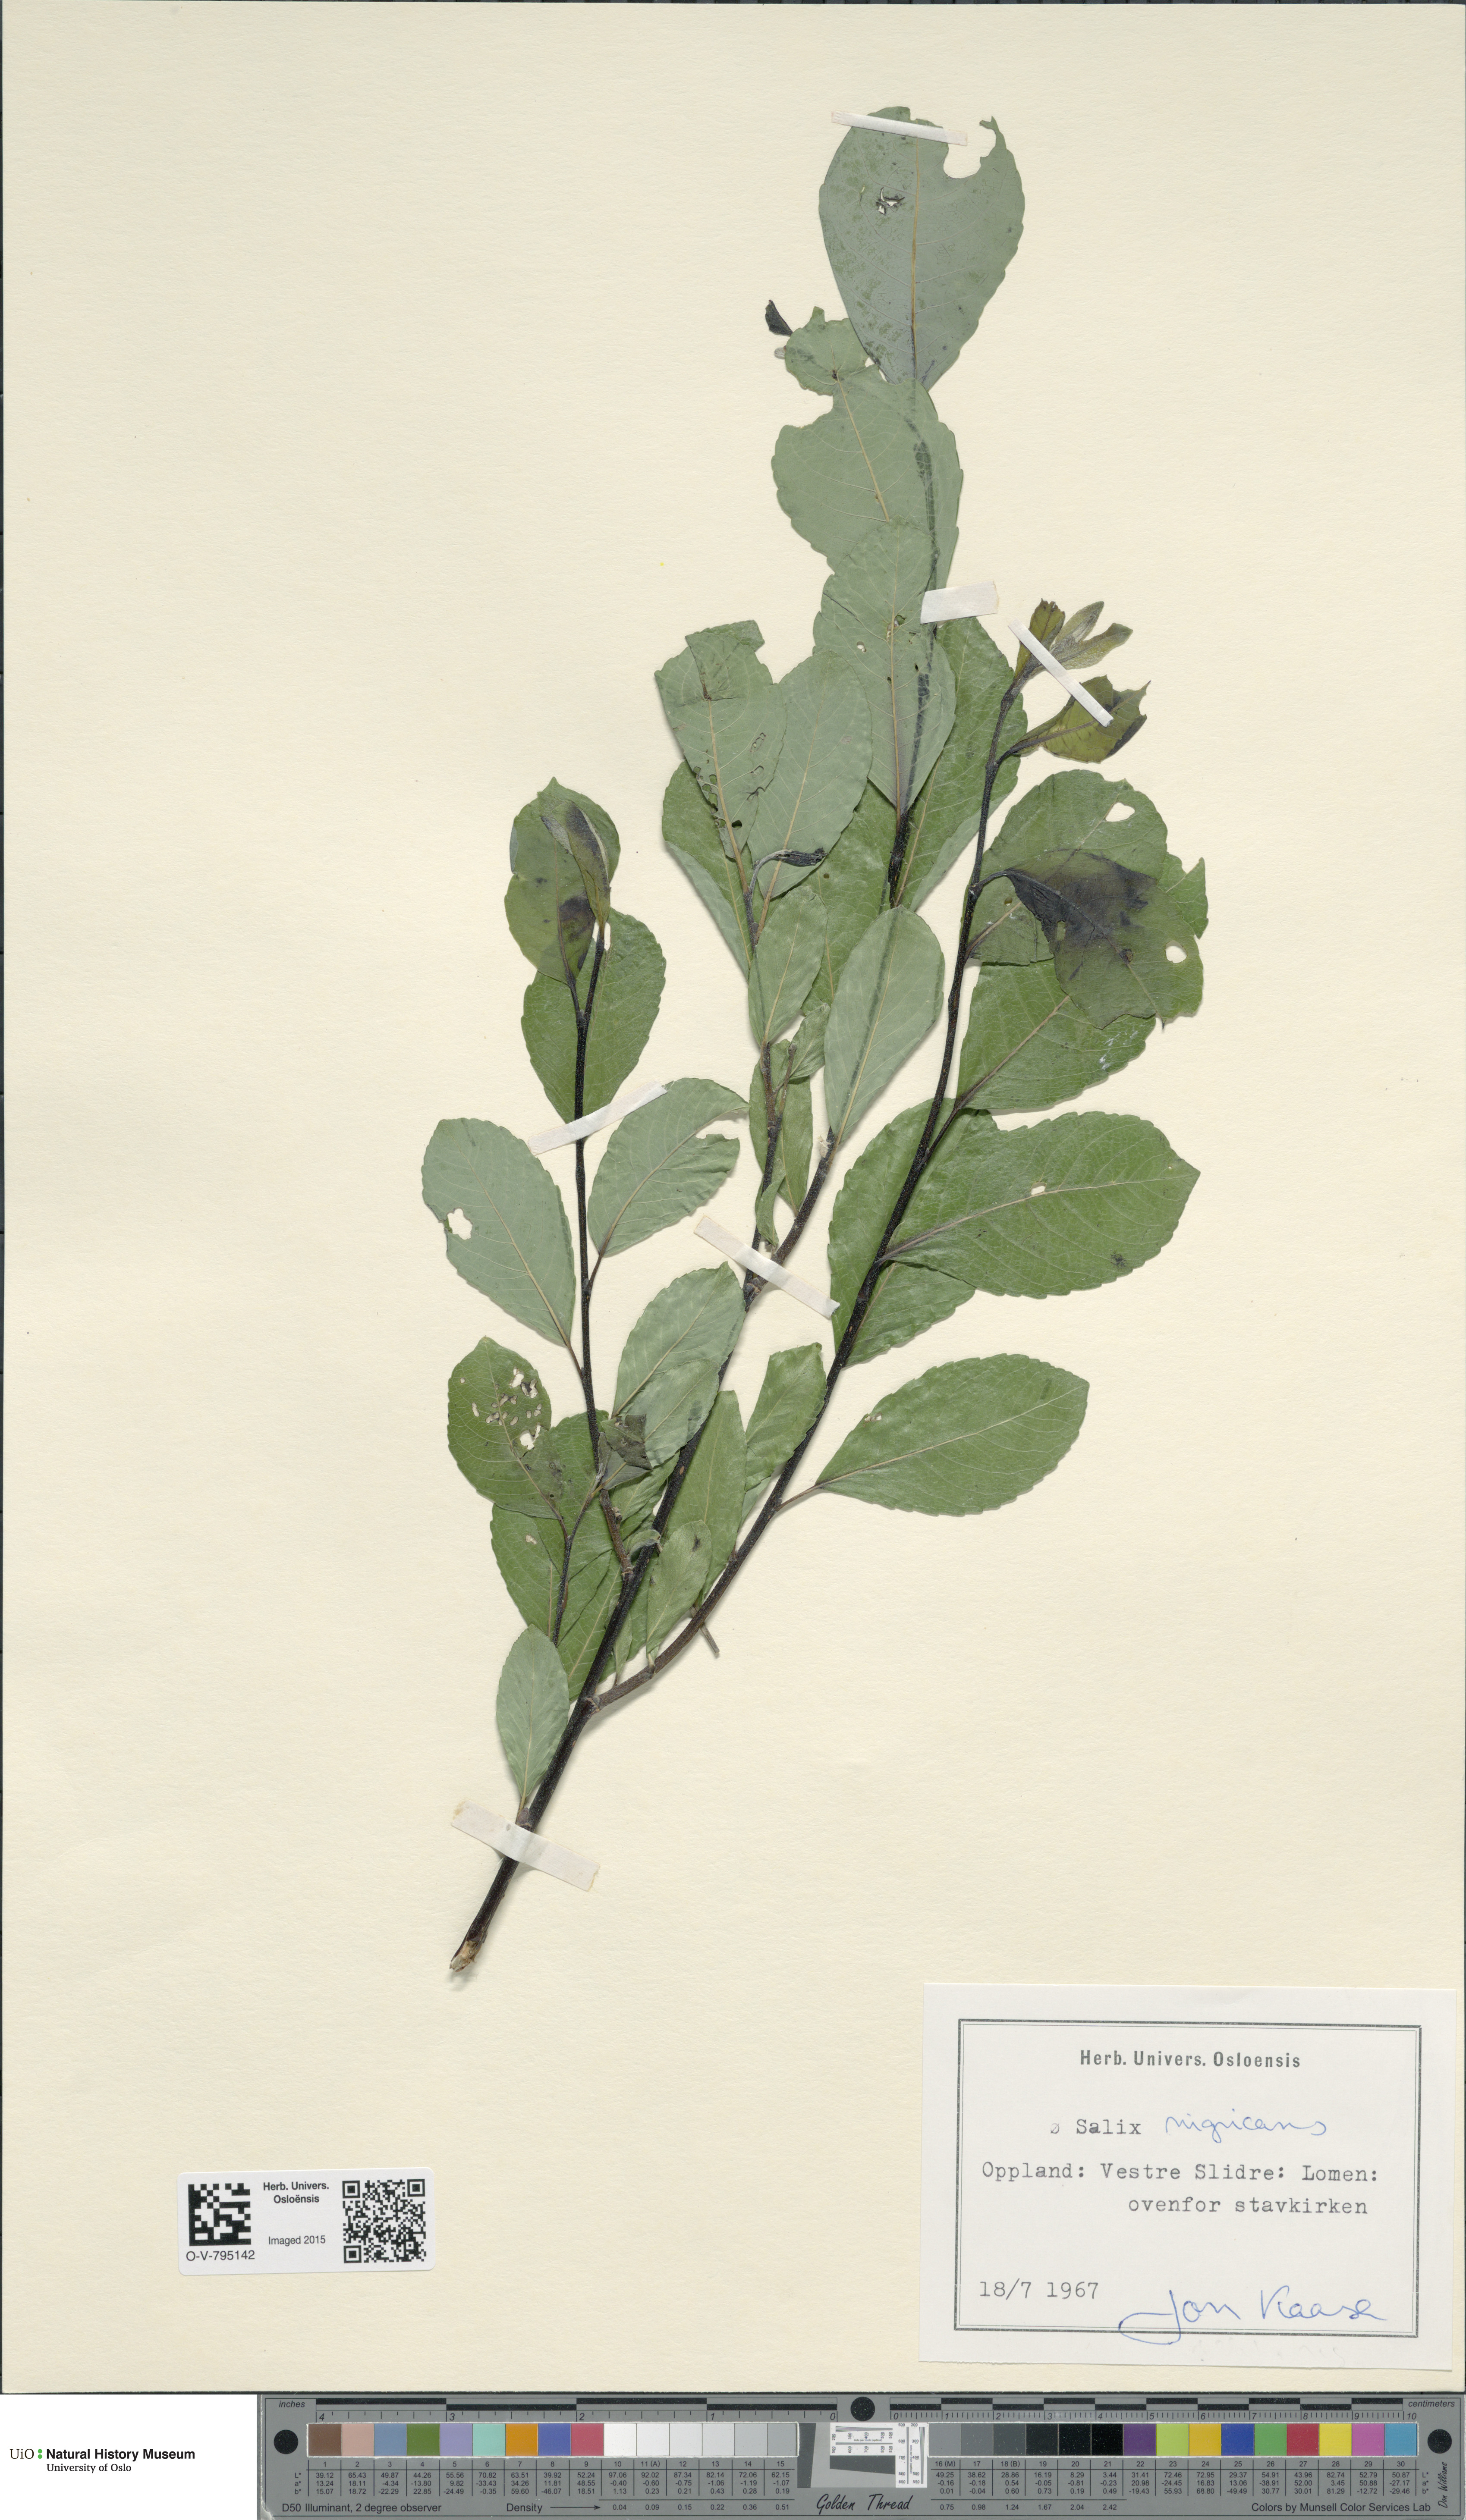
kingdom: Plantae
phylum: Tracheophyta
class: Magnoliopsida
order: Malpighiales
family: Salicaceae
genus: Salix
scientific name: Salix myrsinifolia
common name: Dark-leaved willow
